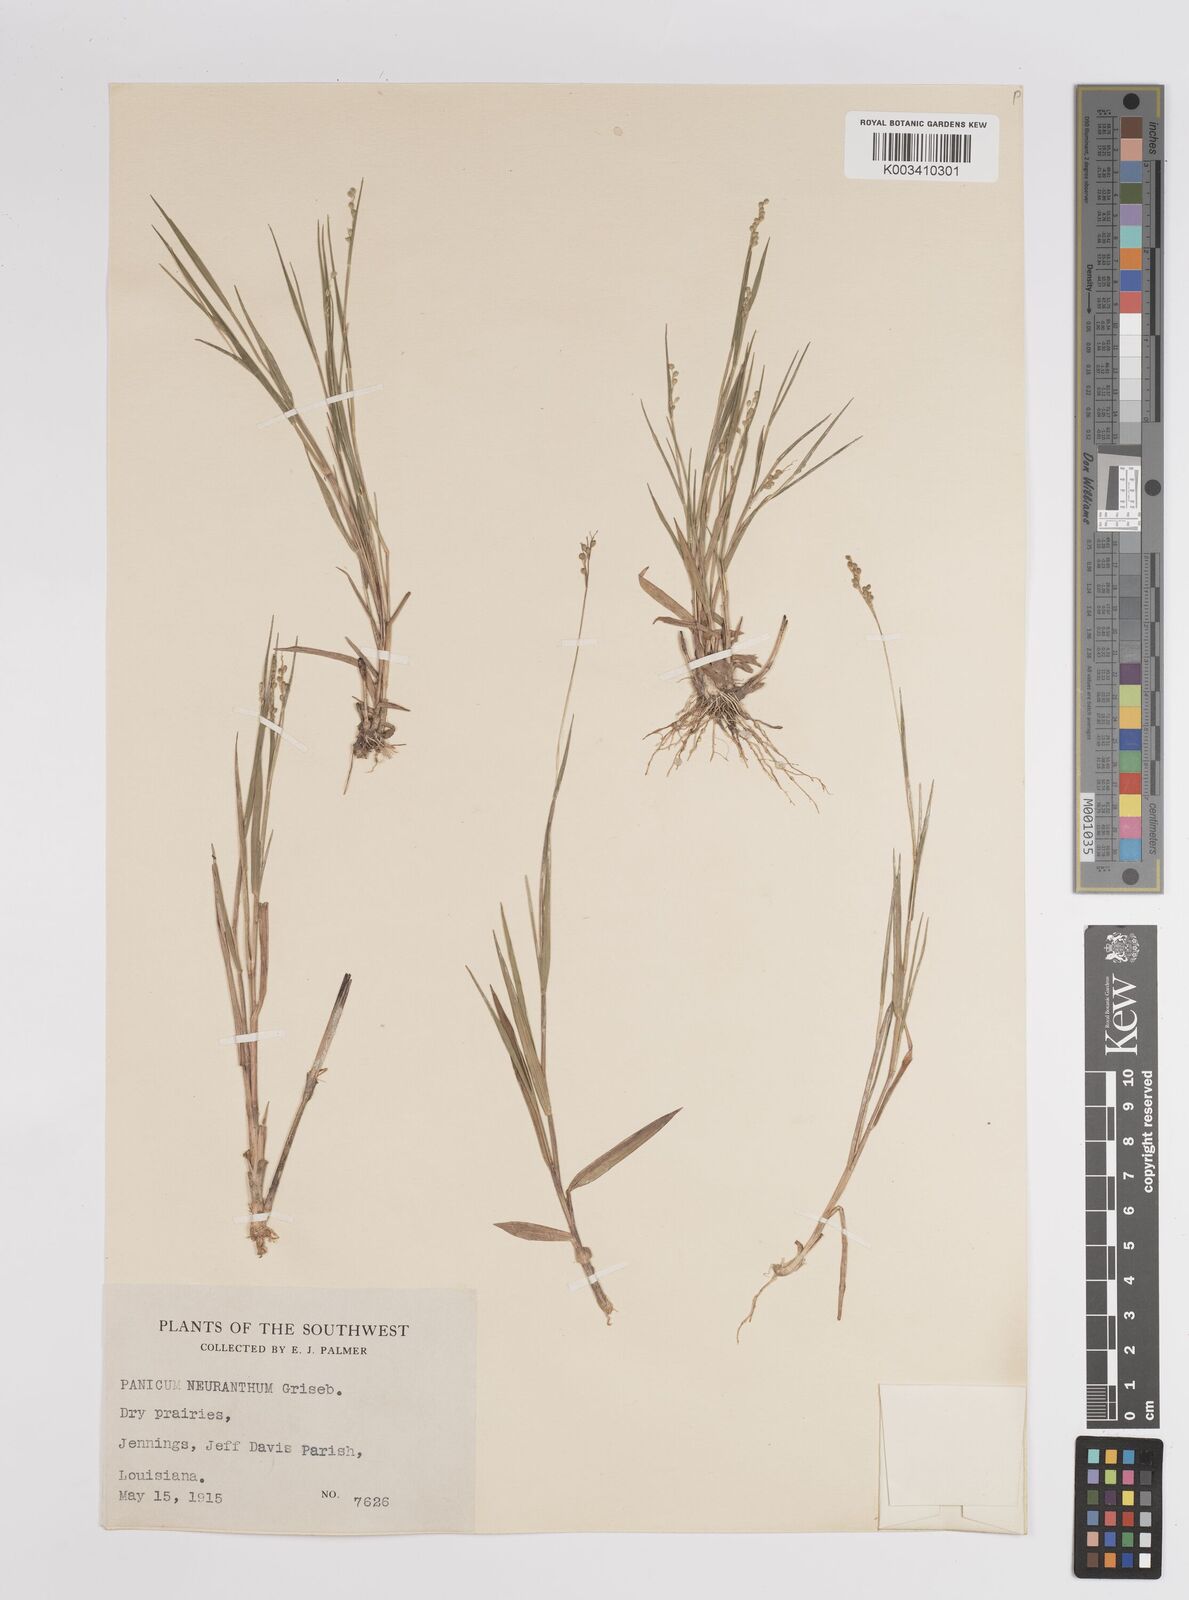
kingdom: Plantae
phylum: Tracheophyta
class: Liliopsida
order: Poales
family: Poaceae
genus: Dichanthelium
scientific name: Dichanthelium aciculare
